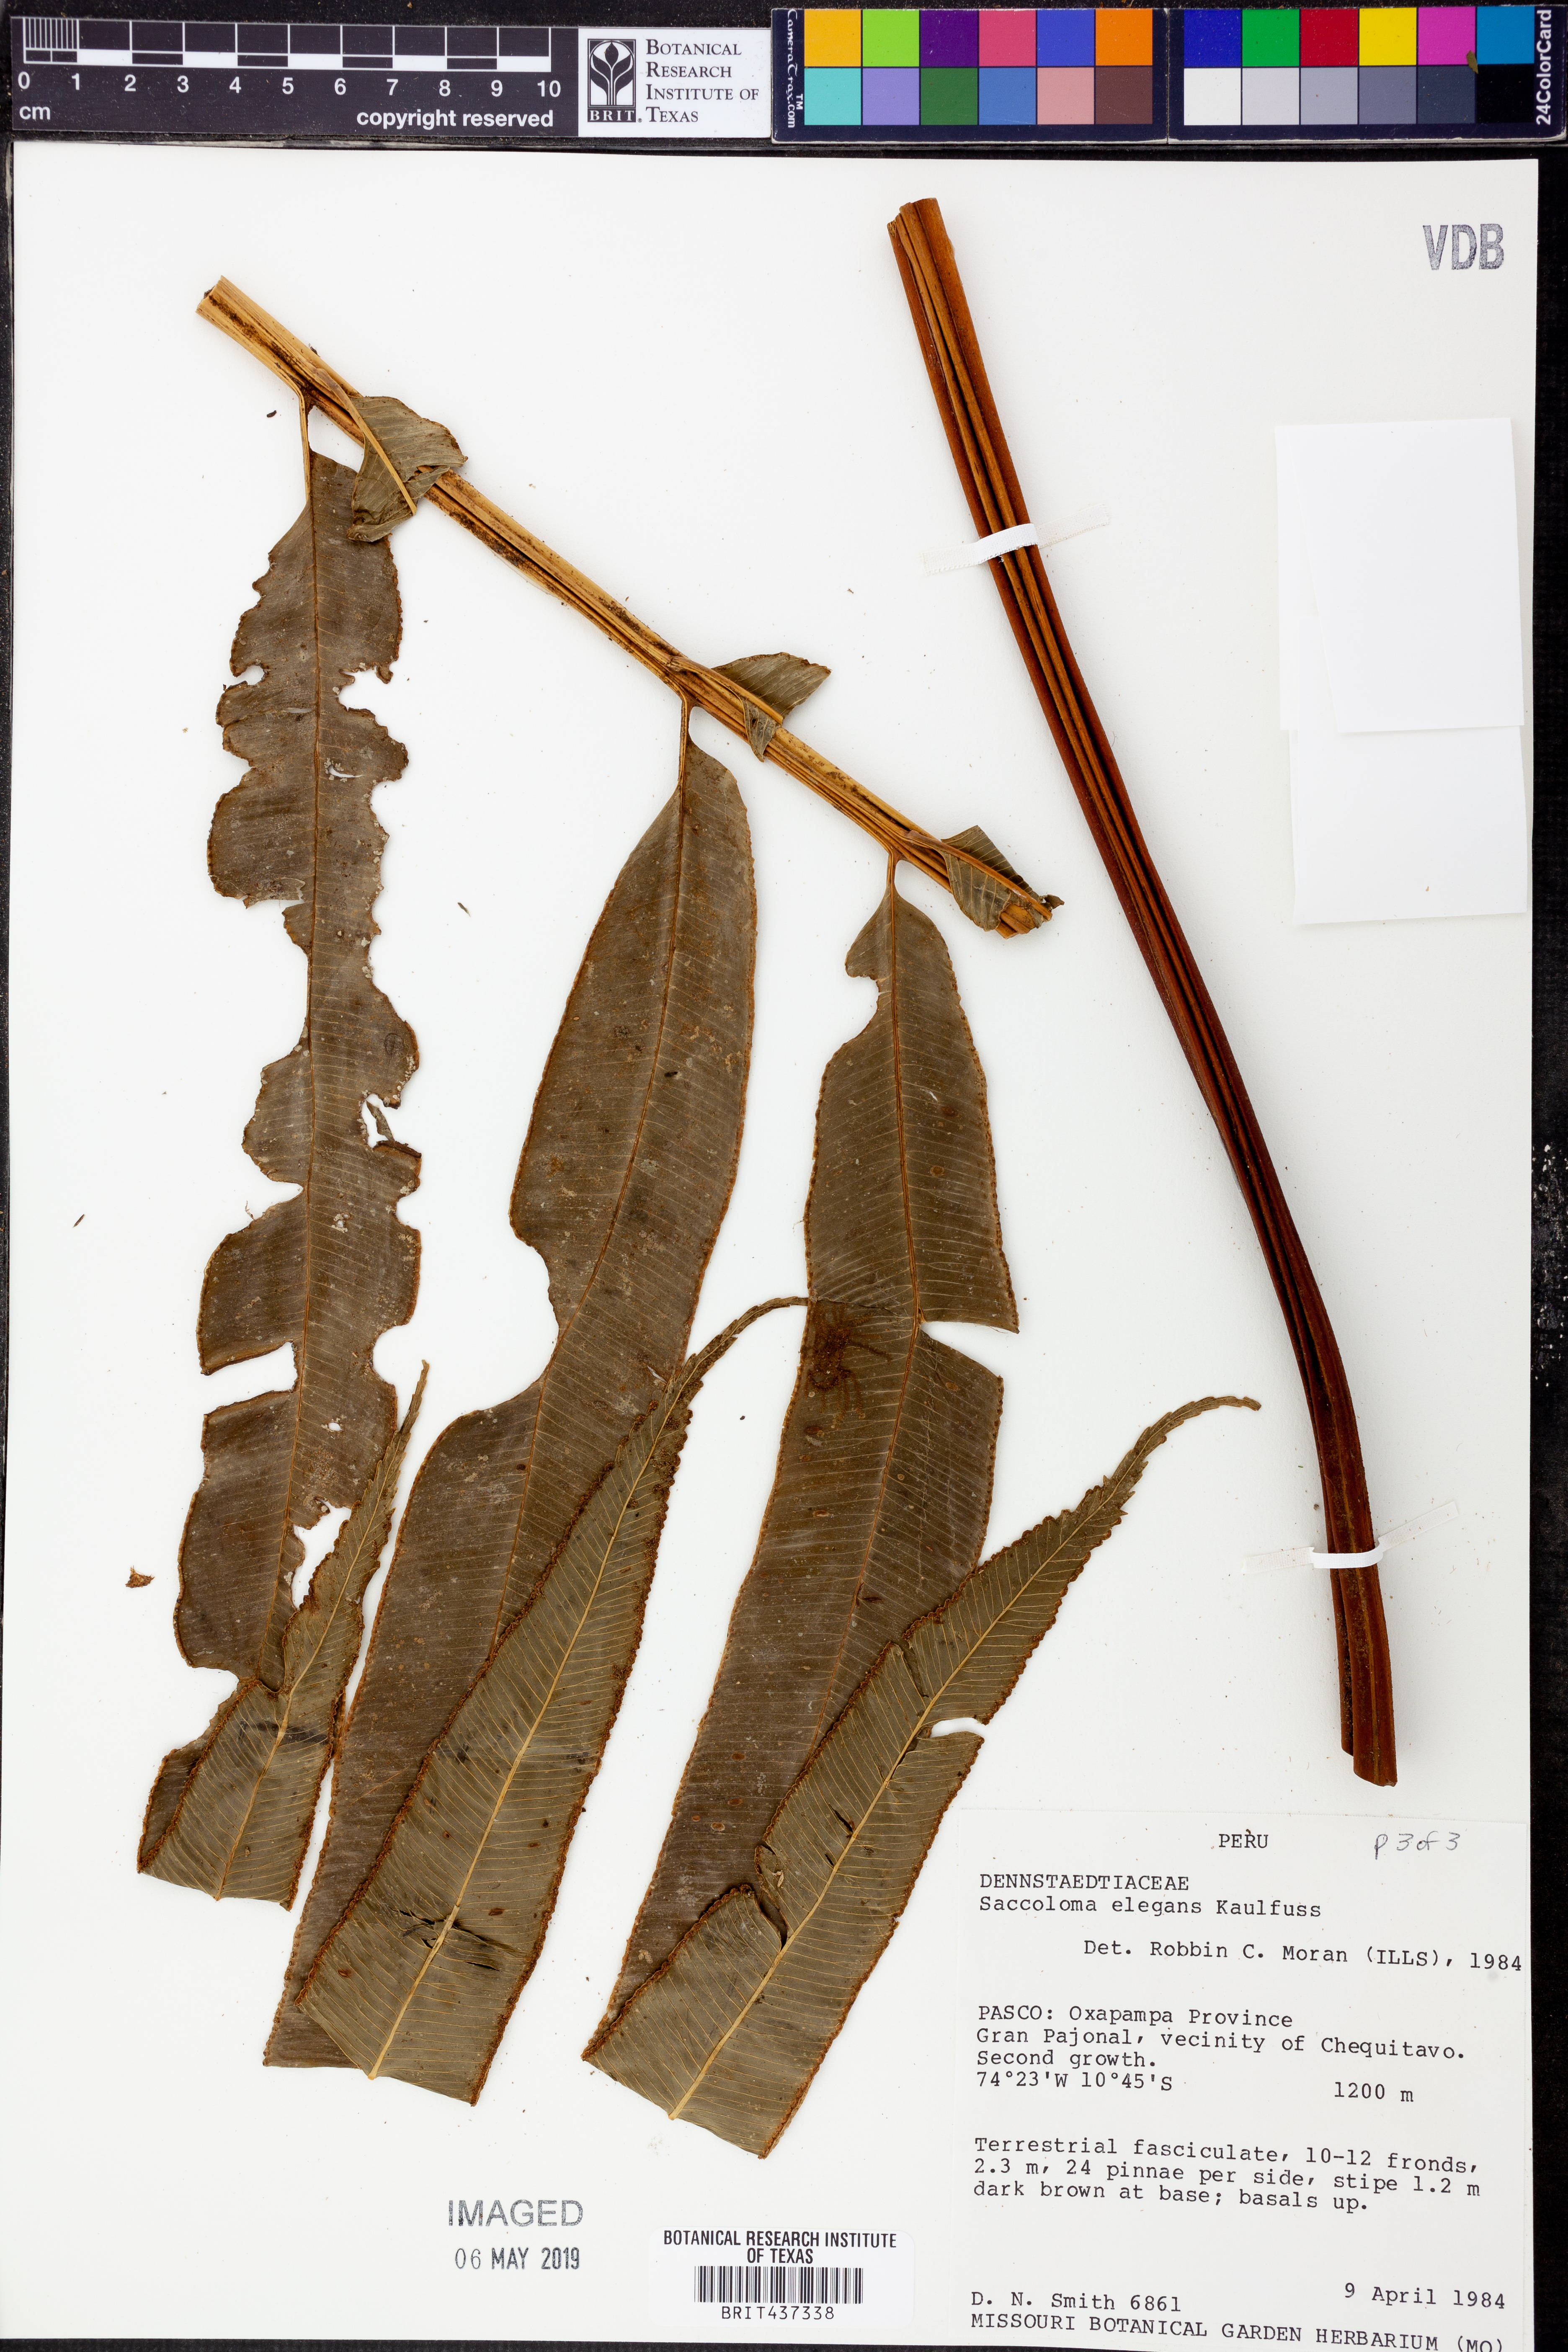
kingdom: Plantae
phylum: Tracheophyta
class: Polypodiopsida
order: Polypodiales
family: Saccolomataceae
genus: Saccoloma
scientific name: Saccoloma elegans
